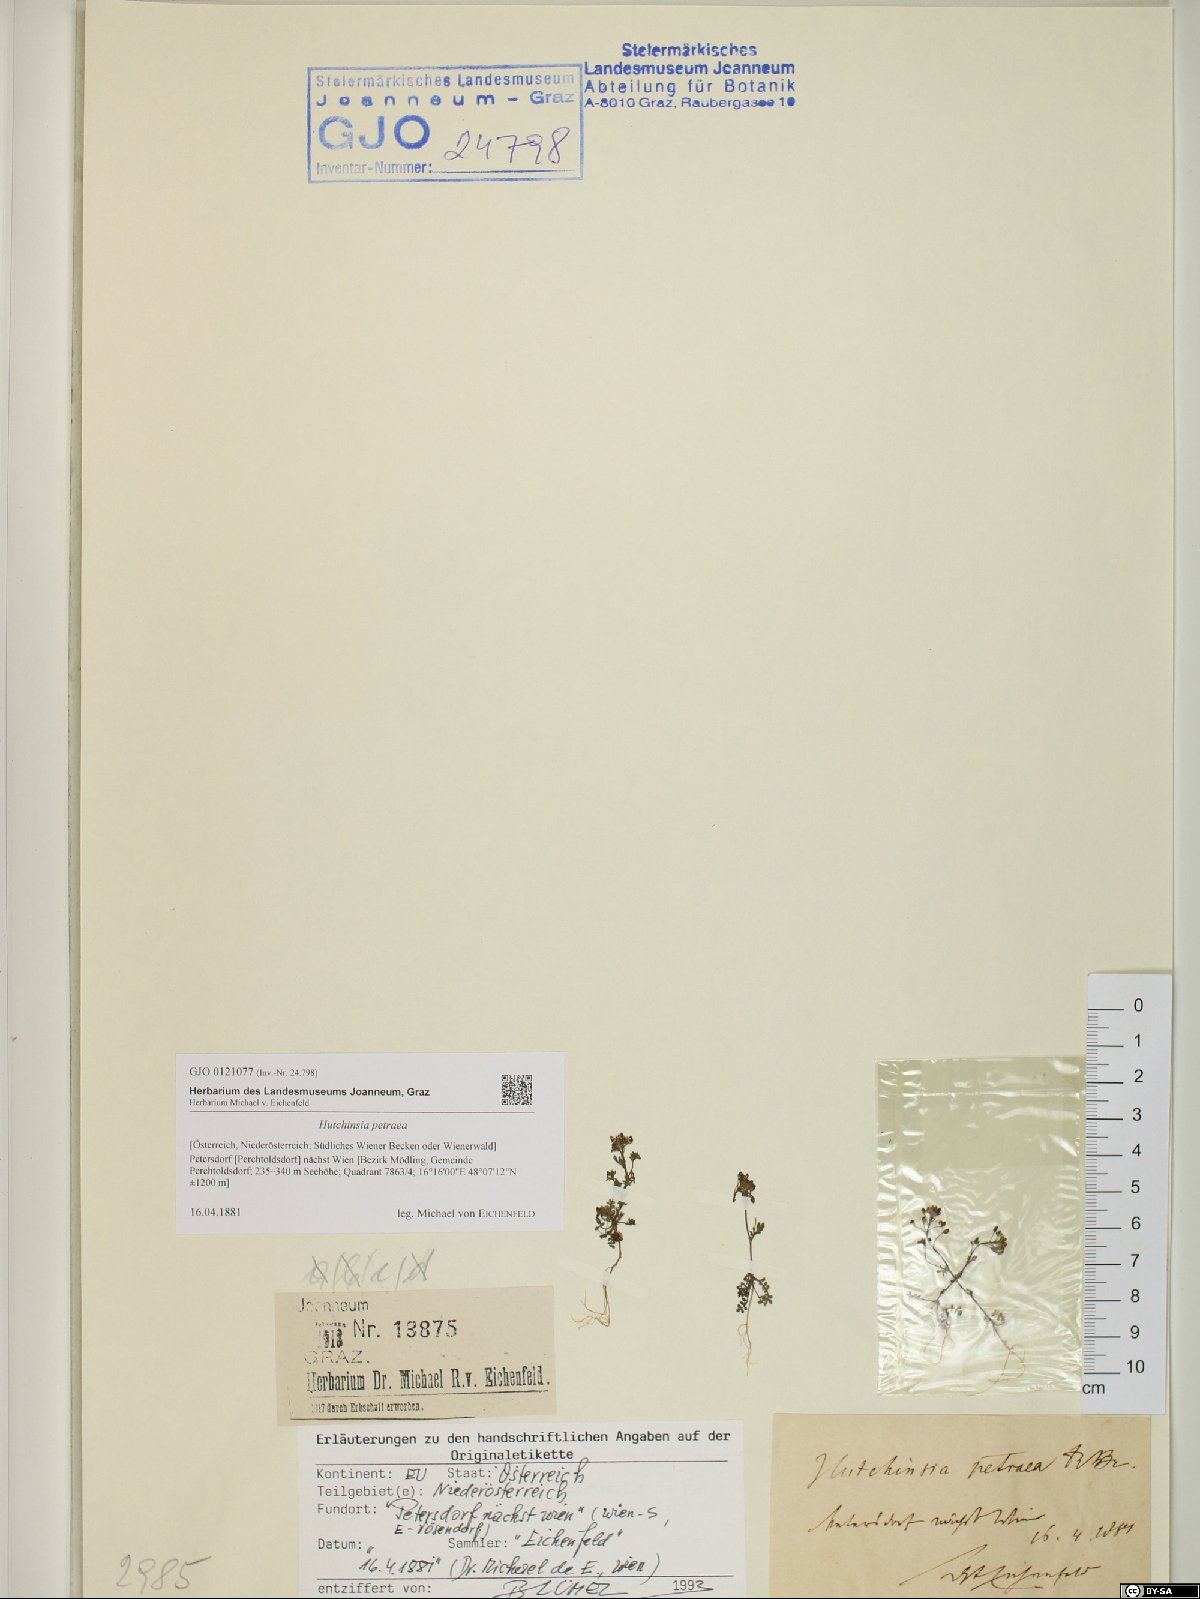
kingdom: Plantae
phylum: Tracheophyta
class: Magnoliopsida
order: Brassicales
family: Brassicaceae
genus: Hornungia
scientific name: Hornungia petraea
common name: Hutchinsia
